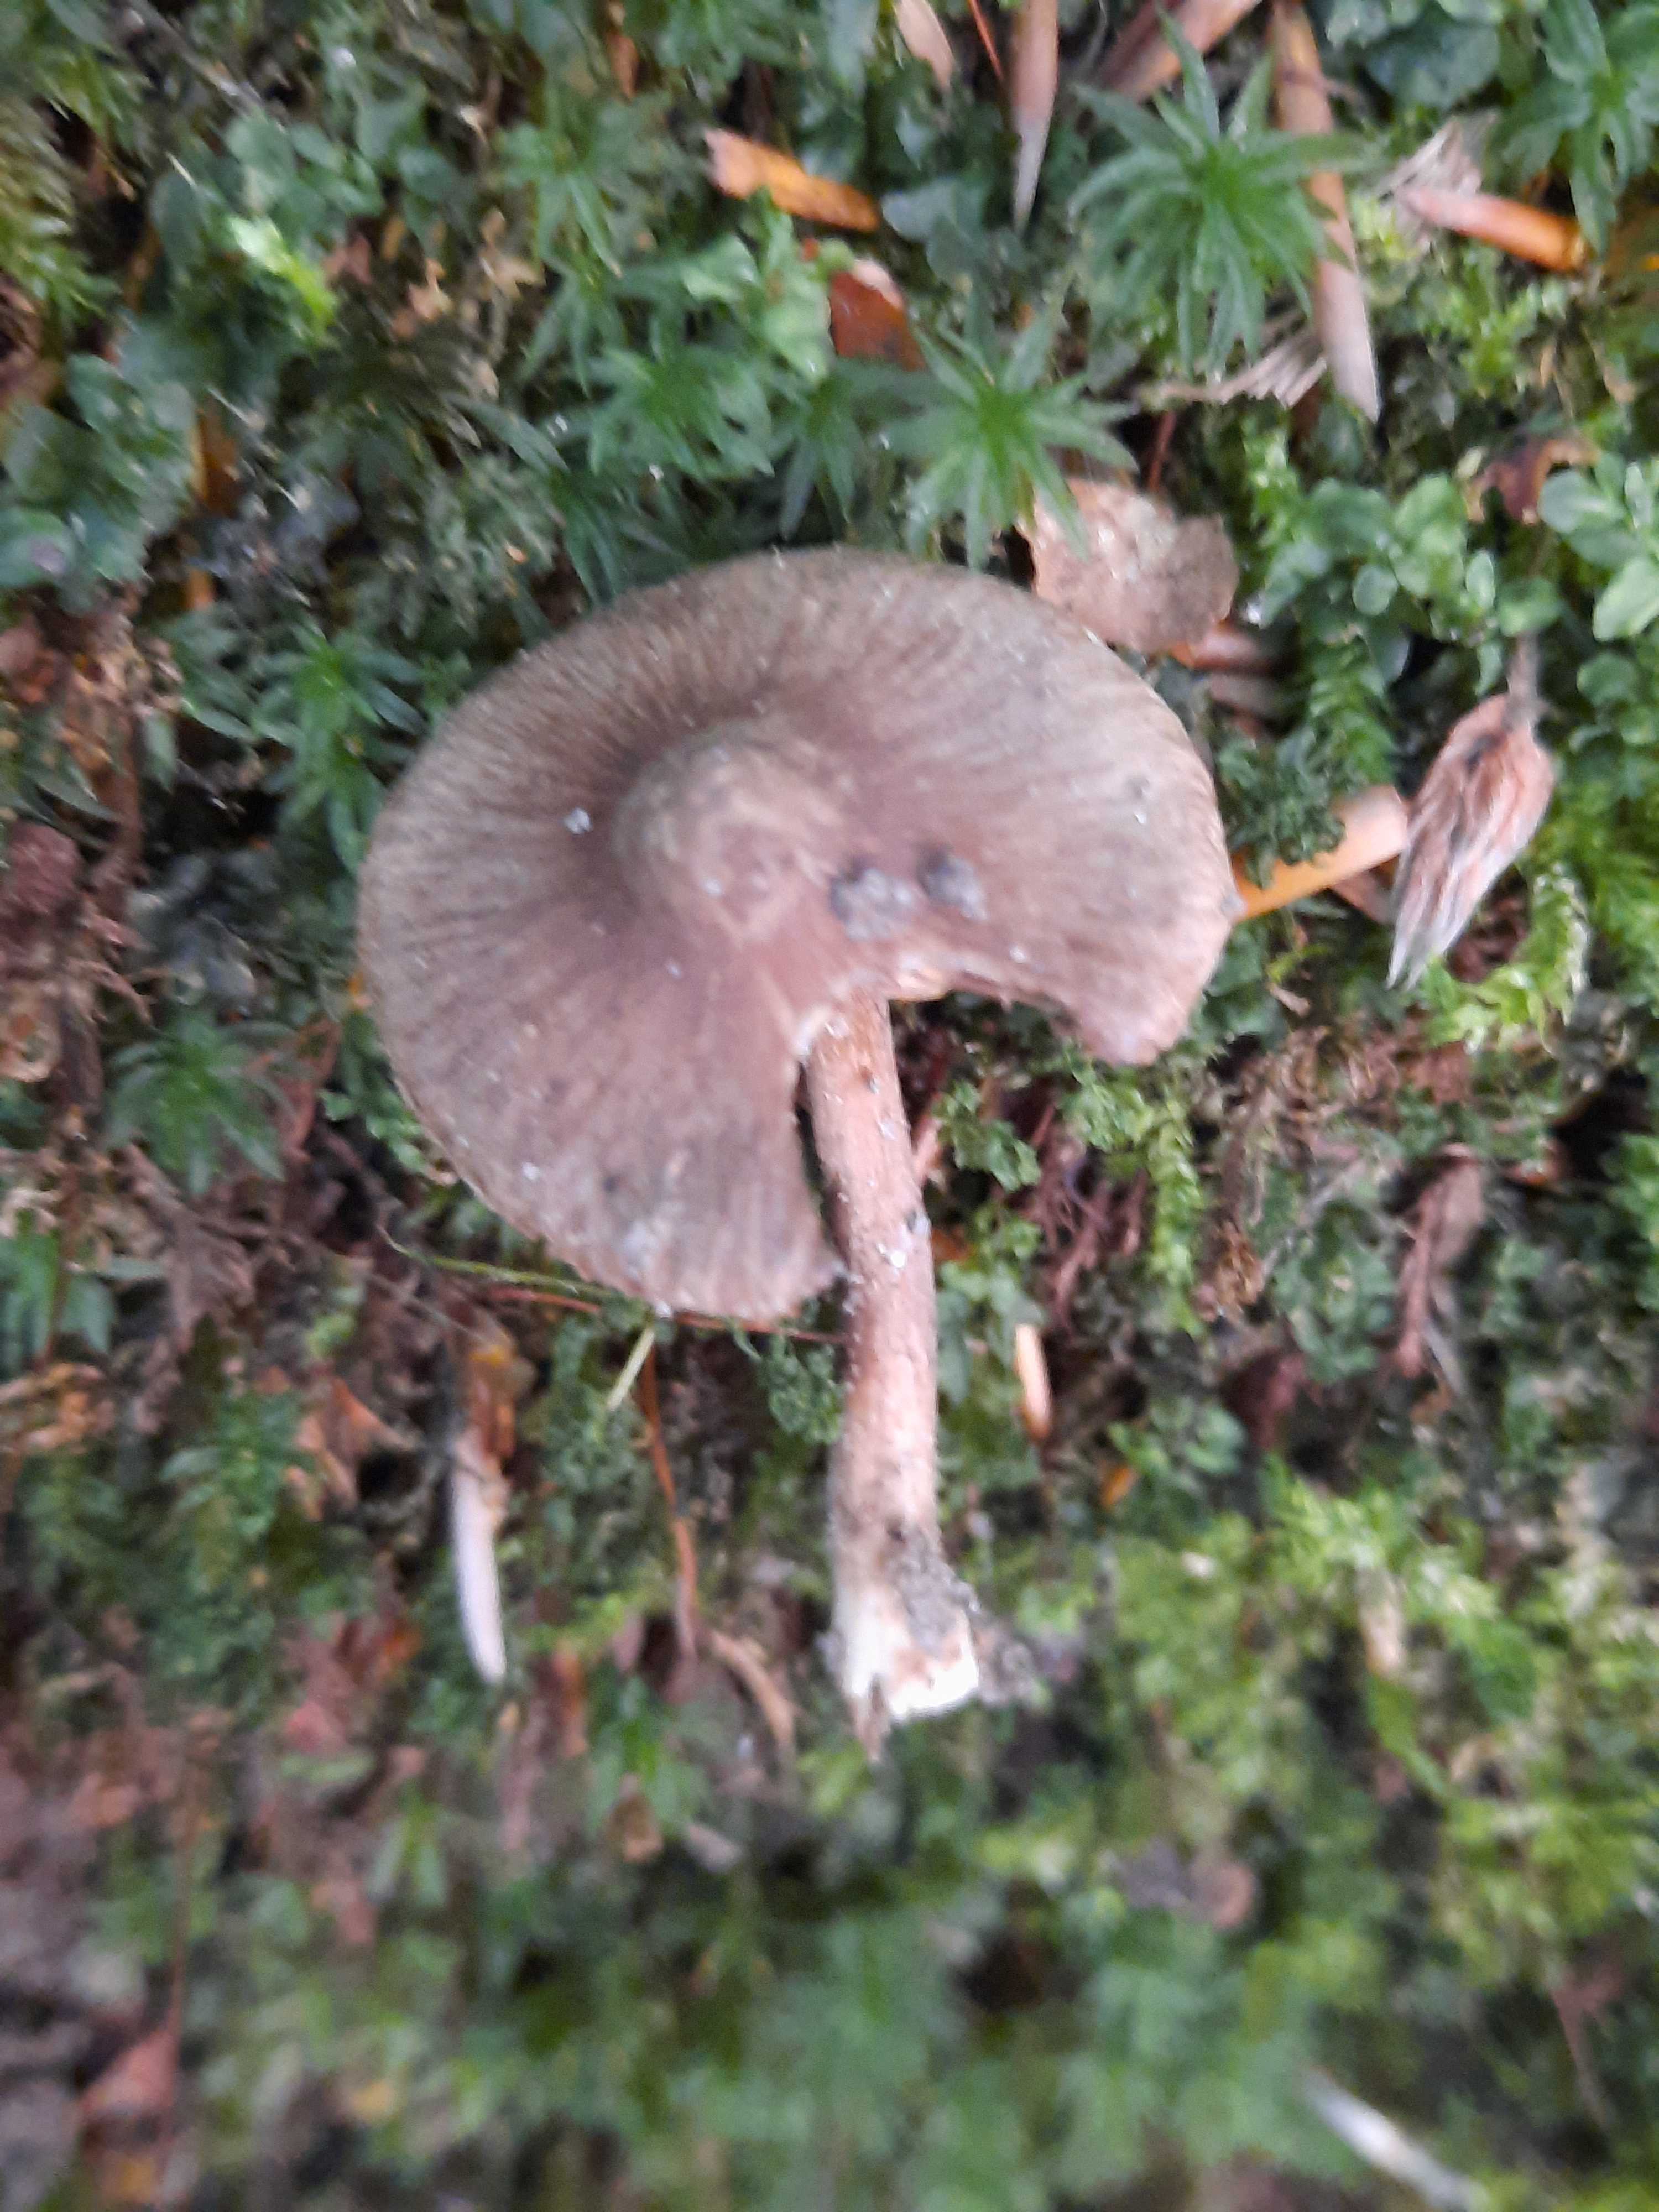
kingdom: Fungi
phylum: Basidiomycota
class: Agaricomycetes
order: Agaricales
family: Inocybaceae
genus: Inocybe
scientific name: Inocybe
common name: trævlhat
